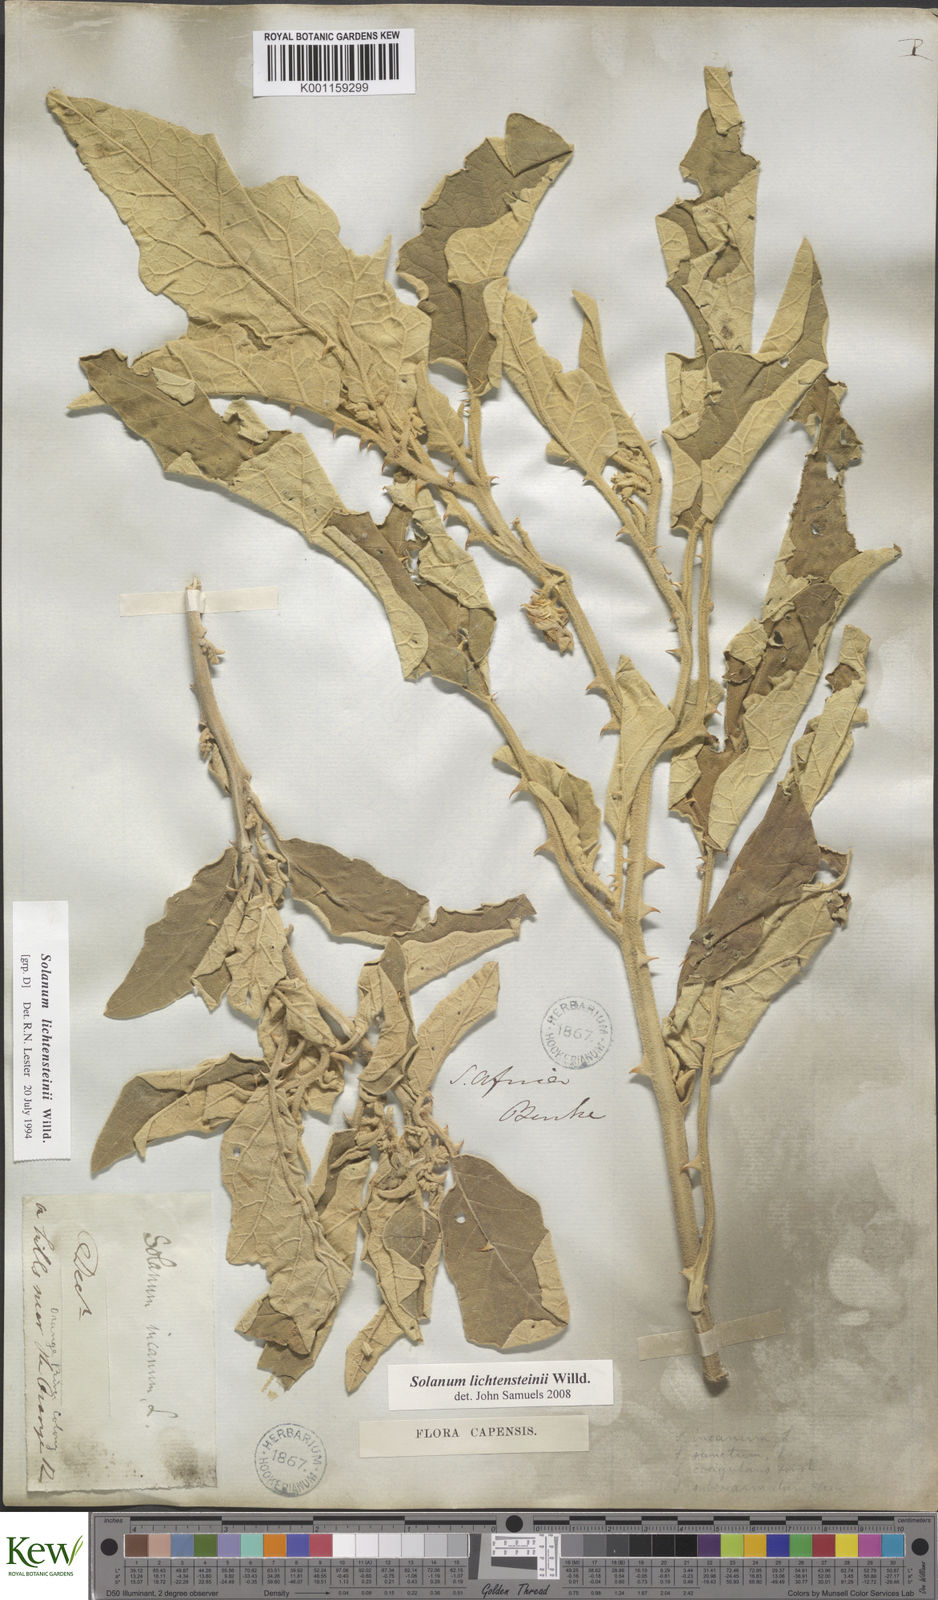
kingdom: Plantae
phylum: Tracheophyta
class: Magnoliopsida
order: Solanales
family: Solanaceae
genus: Solanum
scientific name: Solanum lichtensteinii
